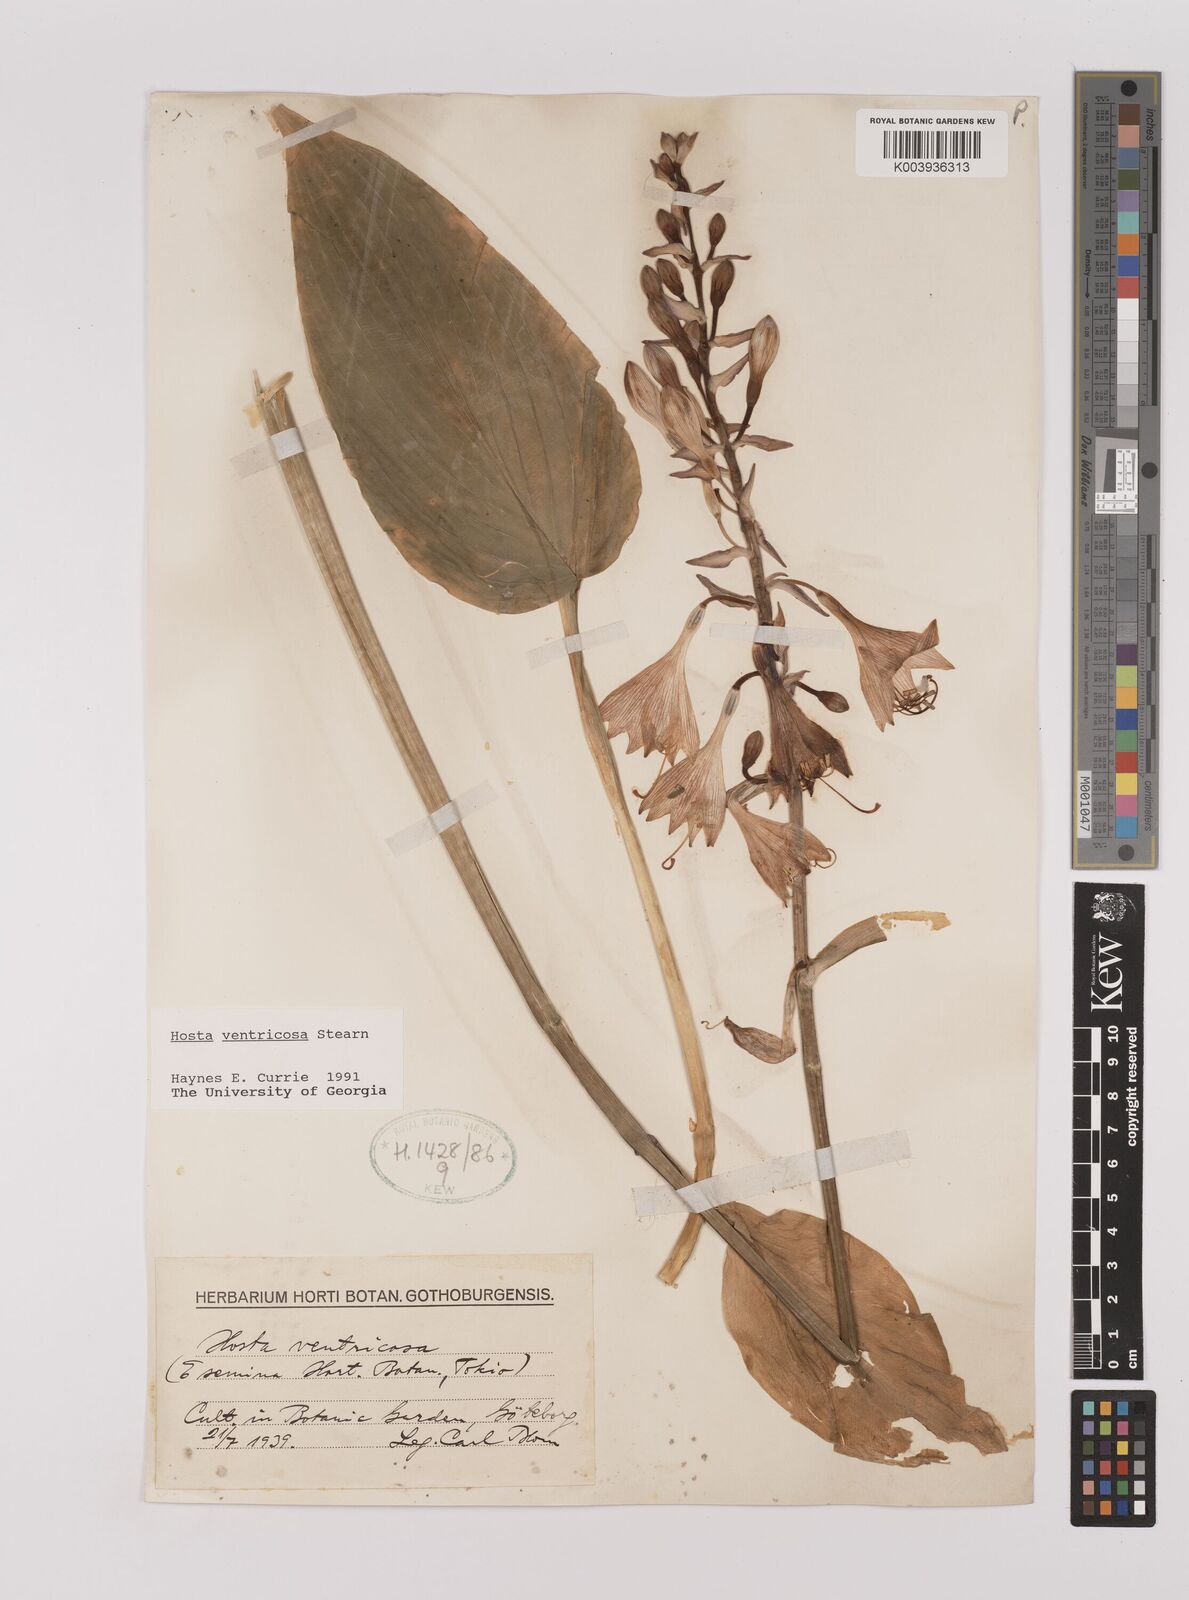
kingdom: Plantae
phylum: Tracheophyta
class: Liliopsida
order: Asparagales
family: Asparagaceae
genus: Hosta
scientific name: Hosta ventricosa
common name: Blue plantain-lily
